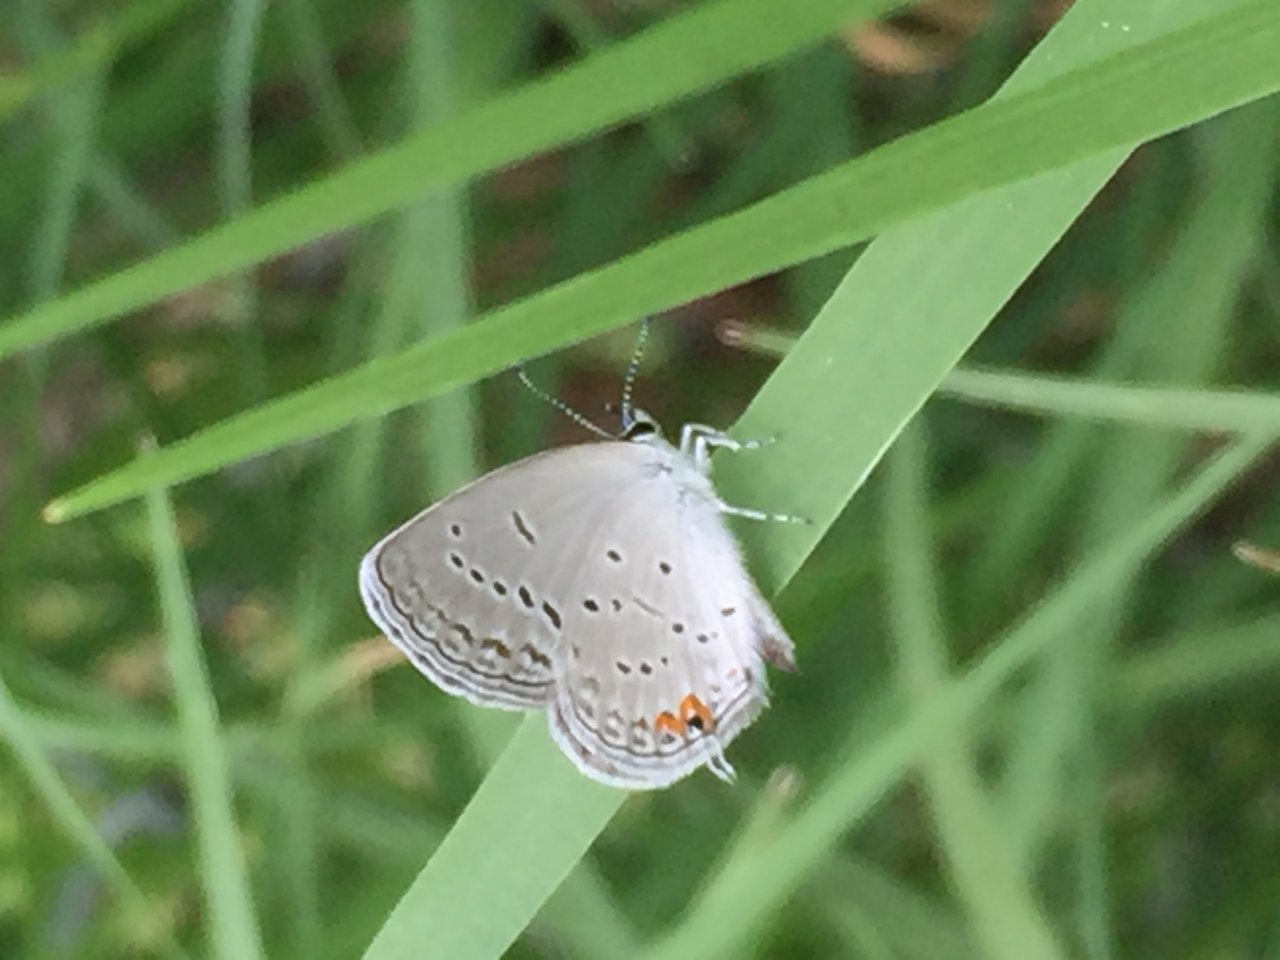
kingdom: Animalia
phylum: Arthropoda
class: Insecta
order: Lepidoptera
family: Lycaenidae
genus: Elkalyce
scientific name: Elkalyce comyntas
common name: Eastern Tailed-Blue
